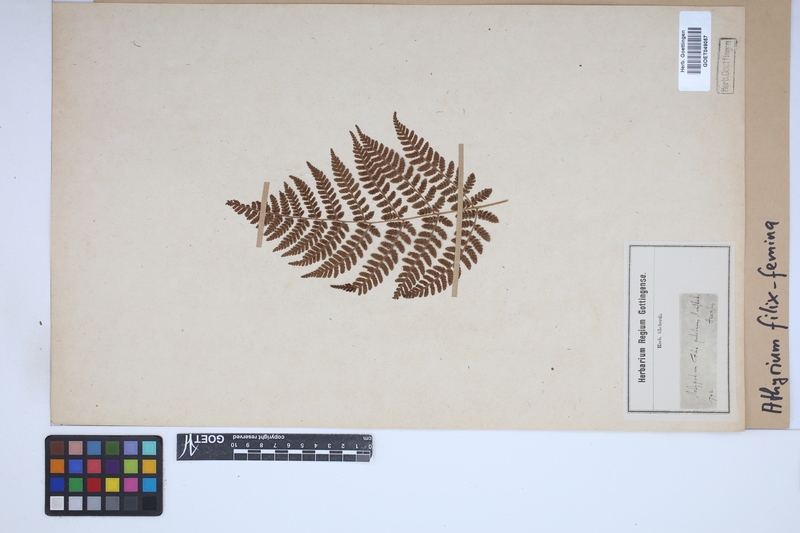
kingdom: Plantae
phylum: Tracheophyta
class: Polypodiopsida
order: Polypodiales
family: Athyriaceae
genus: Athyrium
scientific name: Athyrium filix-femina
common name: Lady fern
